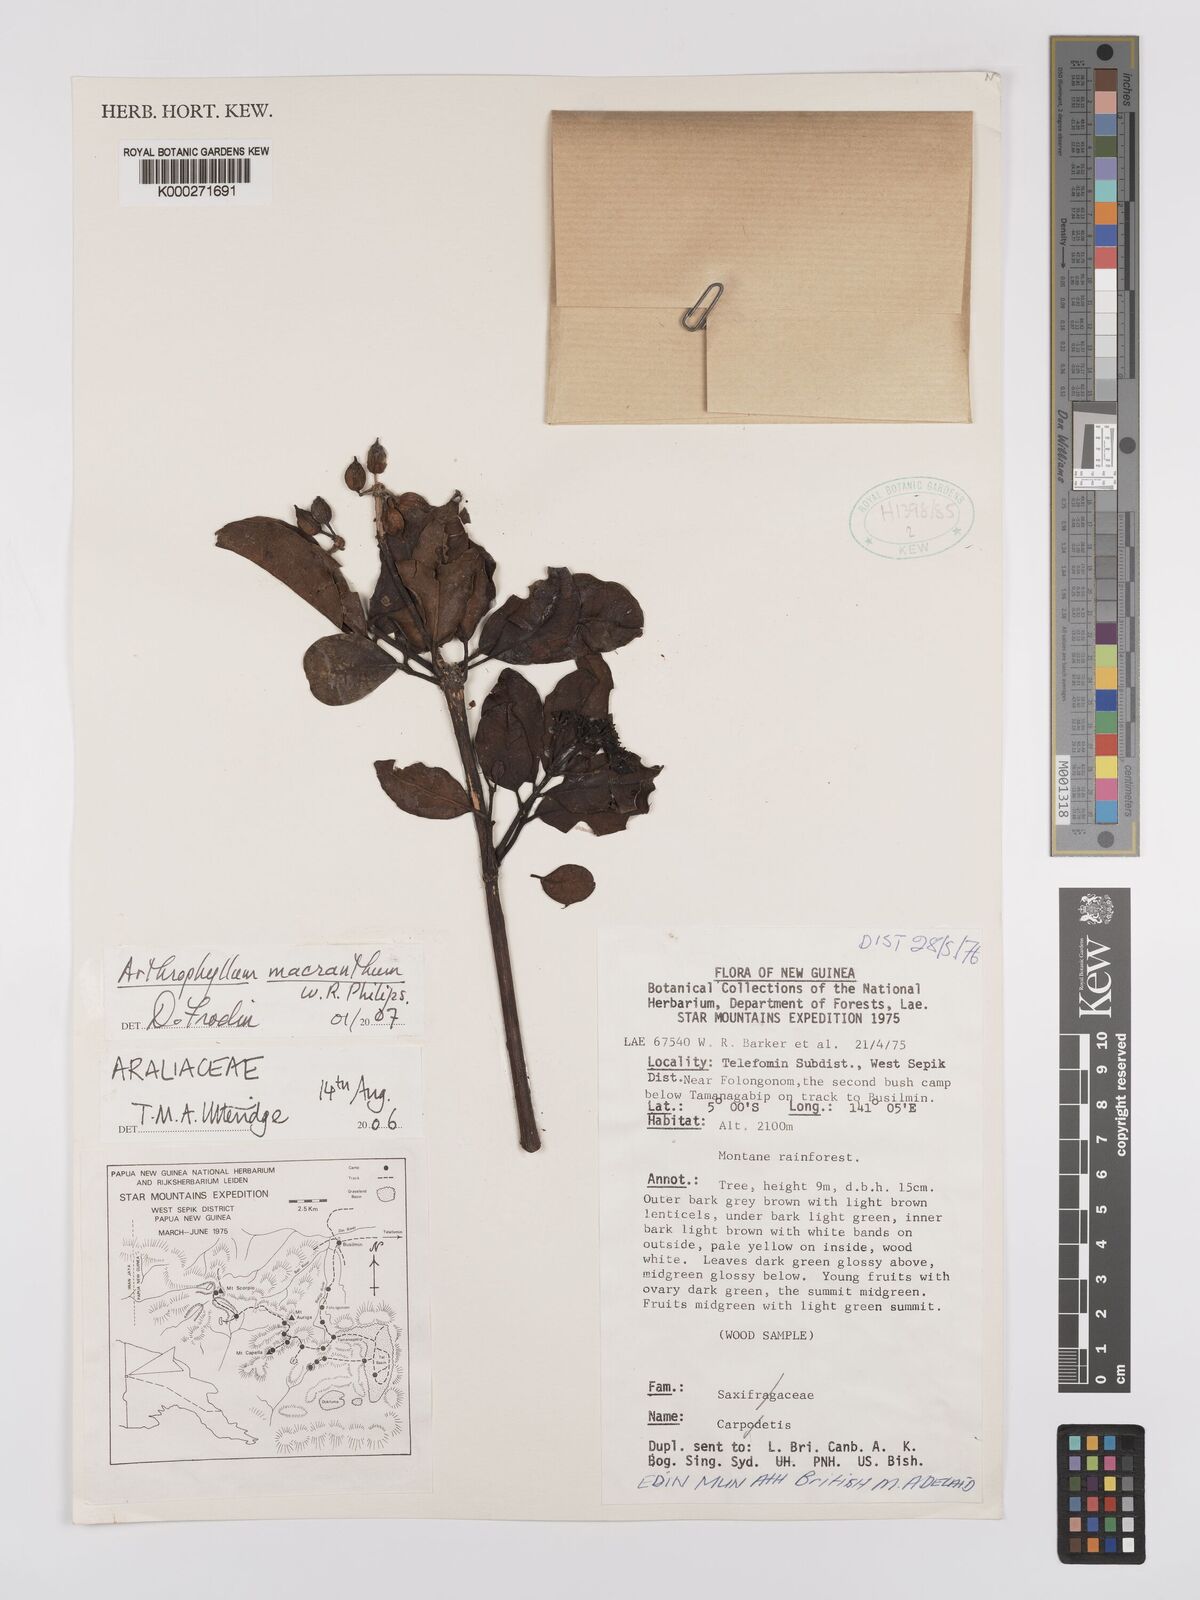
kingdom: Plantae
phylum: Tracheophyta
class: Magnoliopsida
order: Apiales
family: Araliaceae
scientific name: Araliaceae
